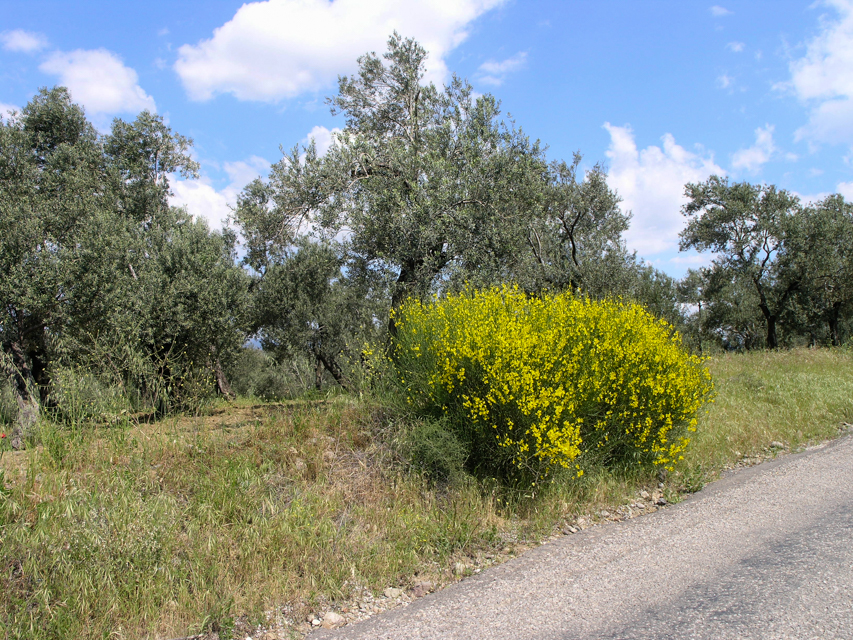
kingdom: Plantae
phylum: Tracheophyta
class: Magnoliopsida
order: Fabales
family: Fabaceae
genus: Spartium
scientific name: Spartium junceum
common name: Spanish broom
